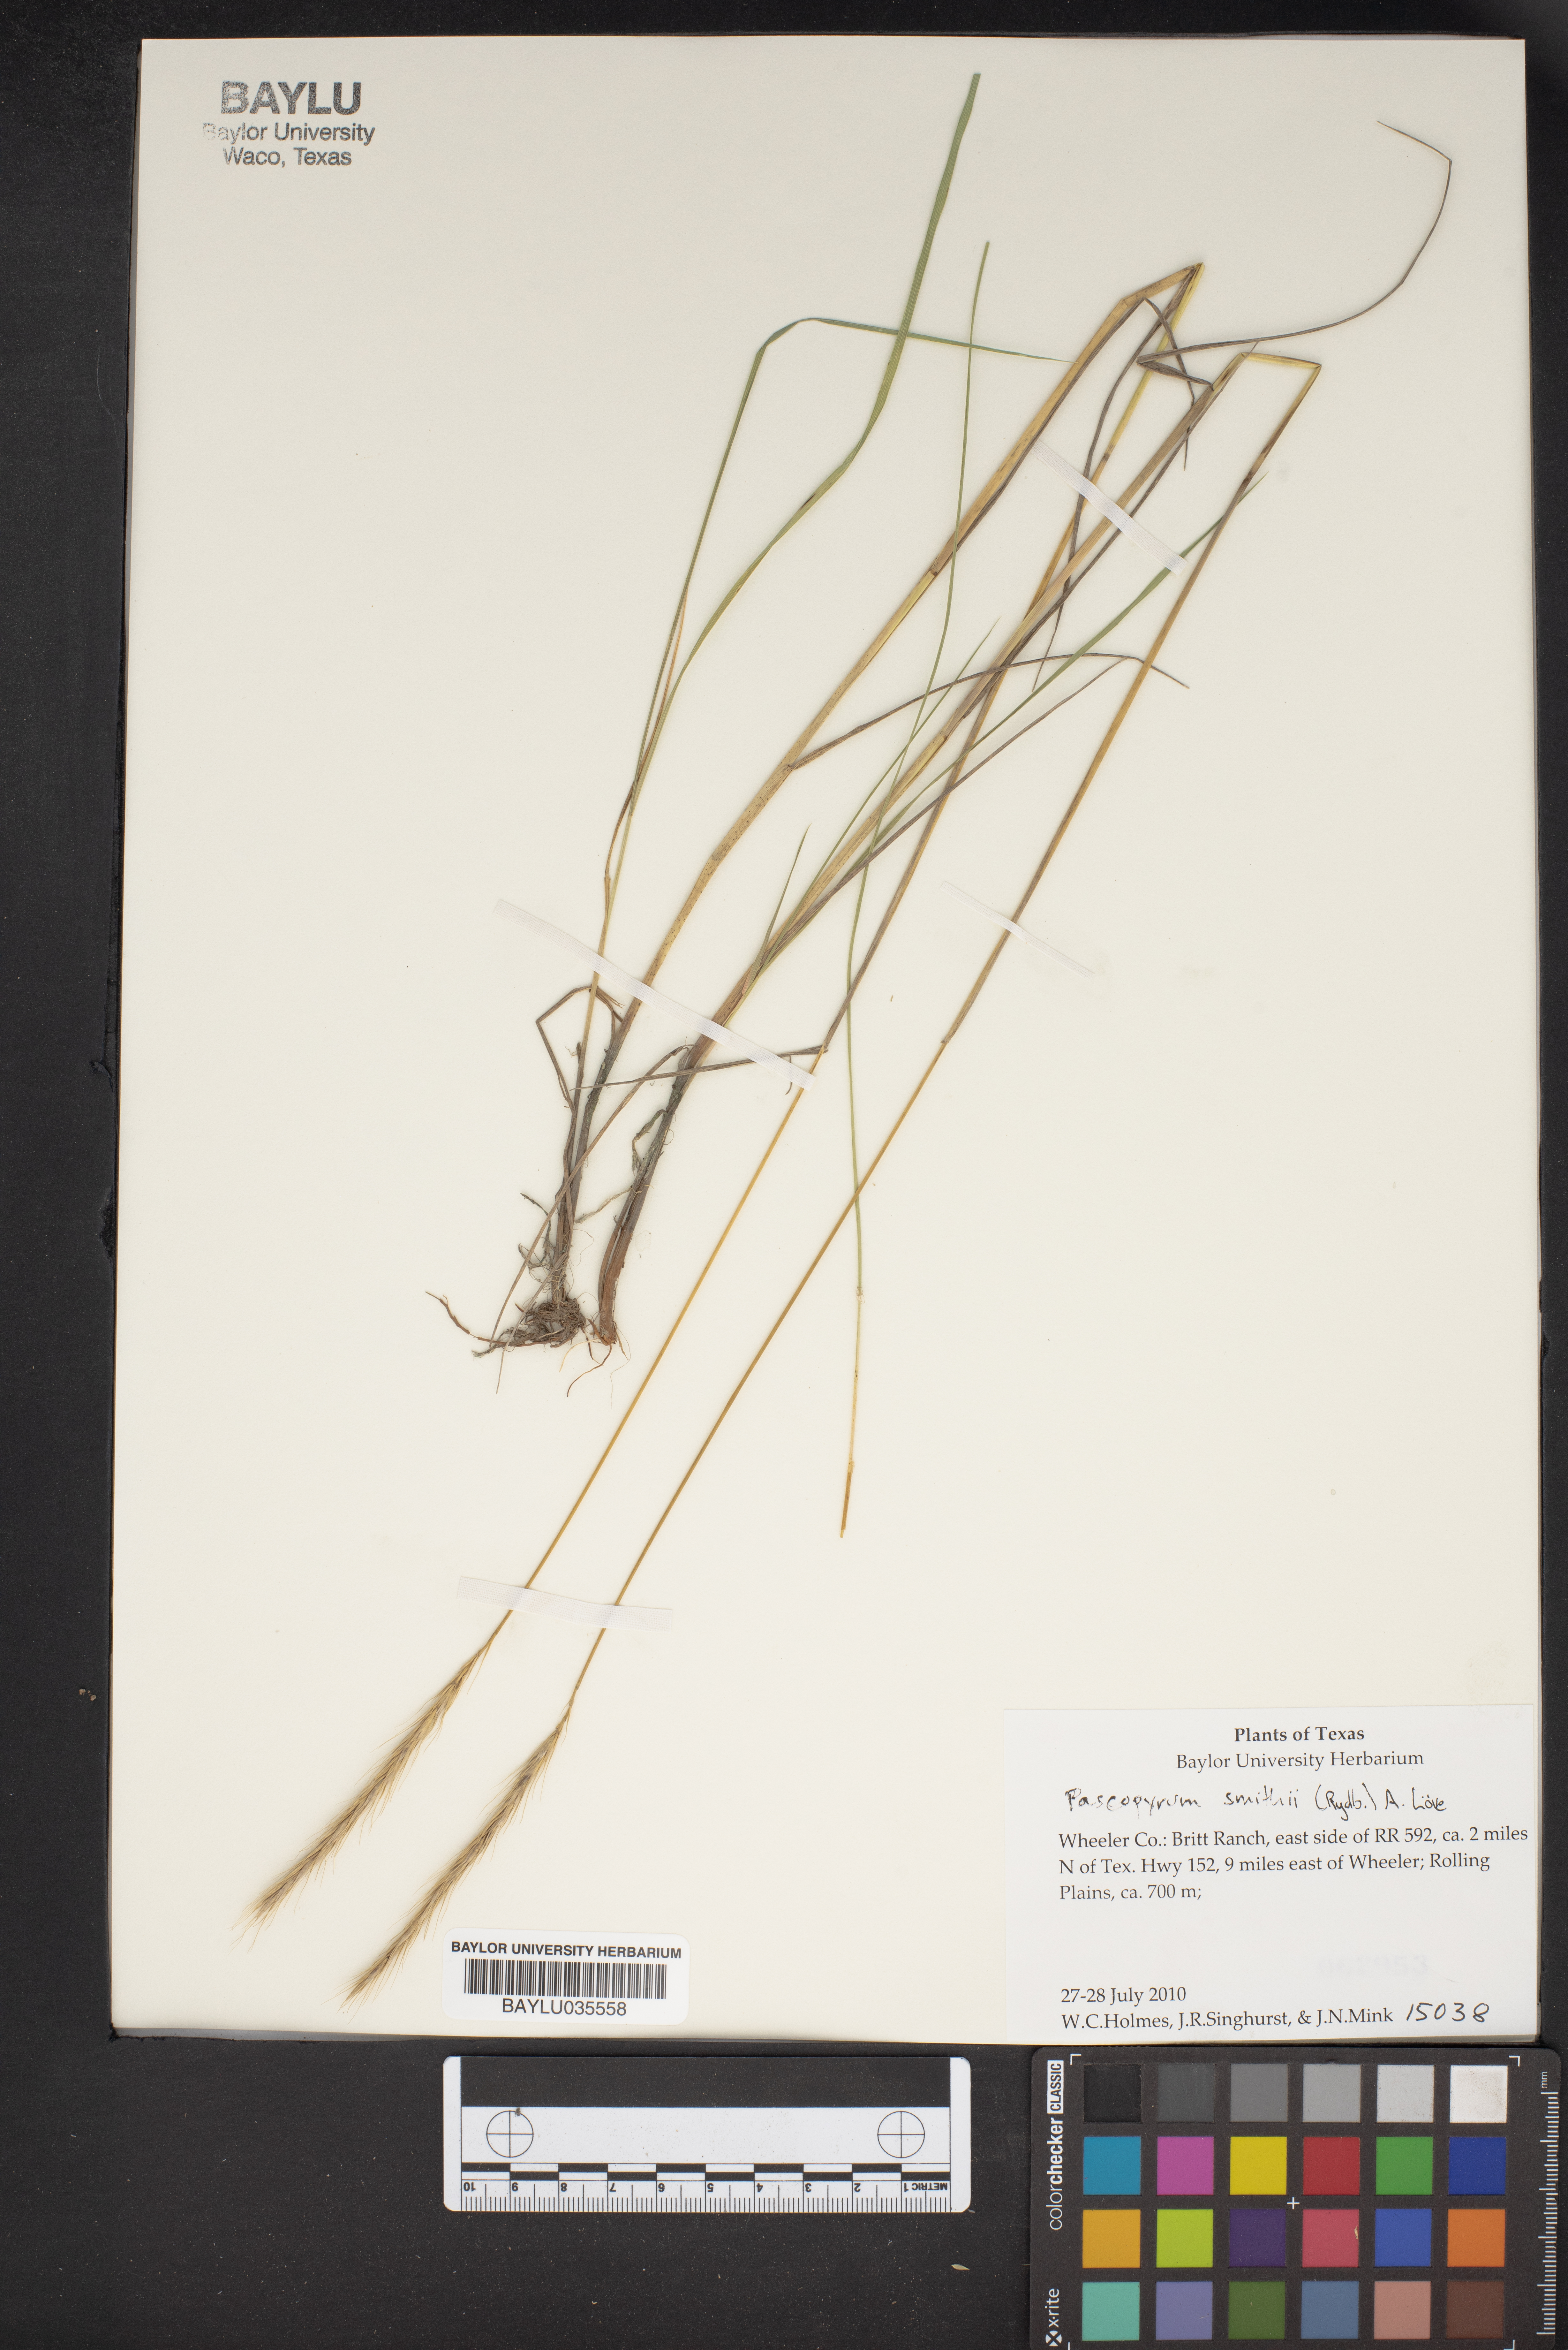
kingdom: Plantae
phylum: Tracheophyta
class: Liliopsida
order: Poales
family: Poaceae
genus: Elymus
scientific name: Elymus smithii
